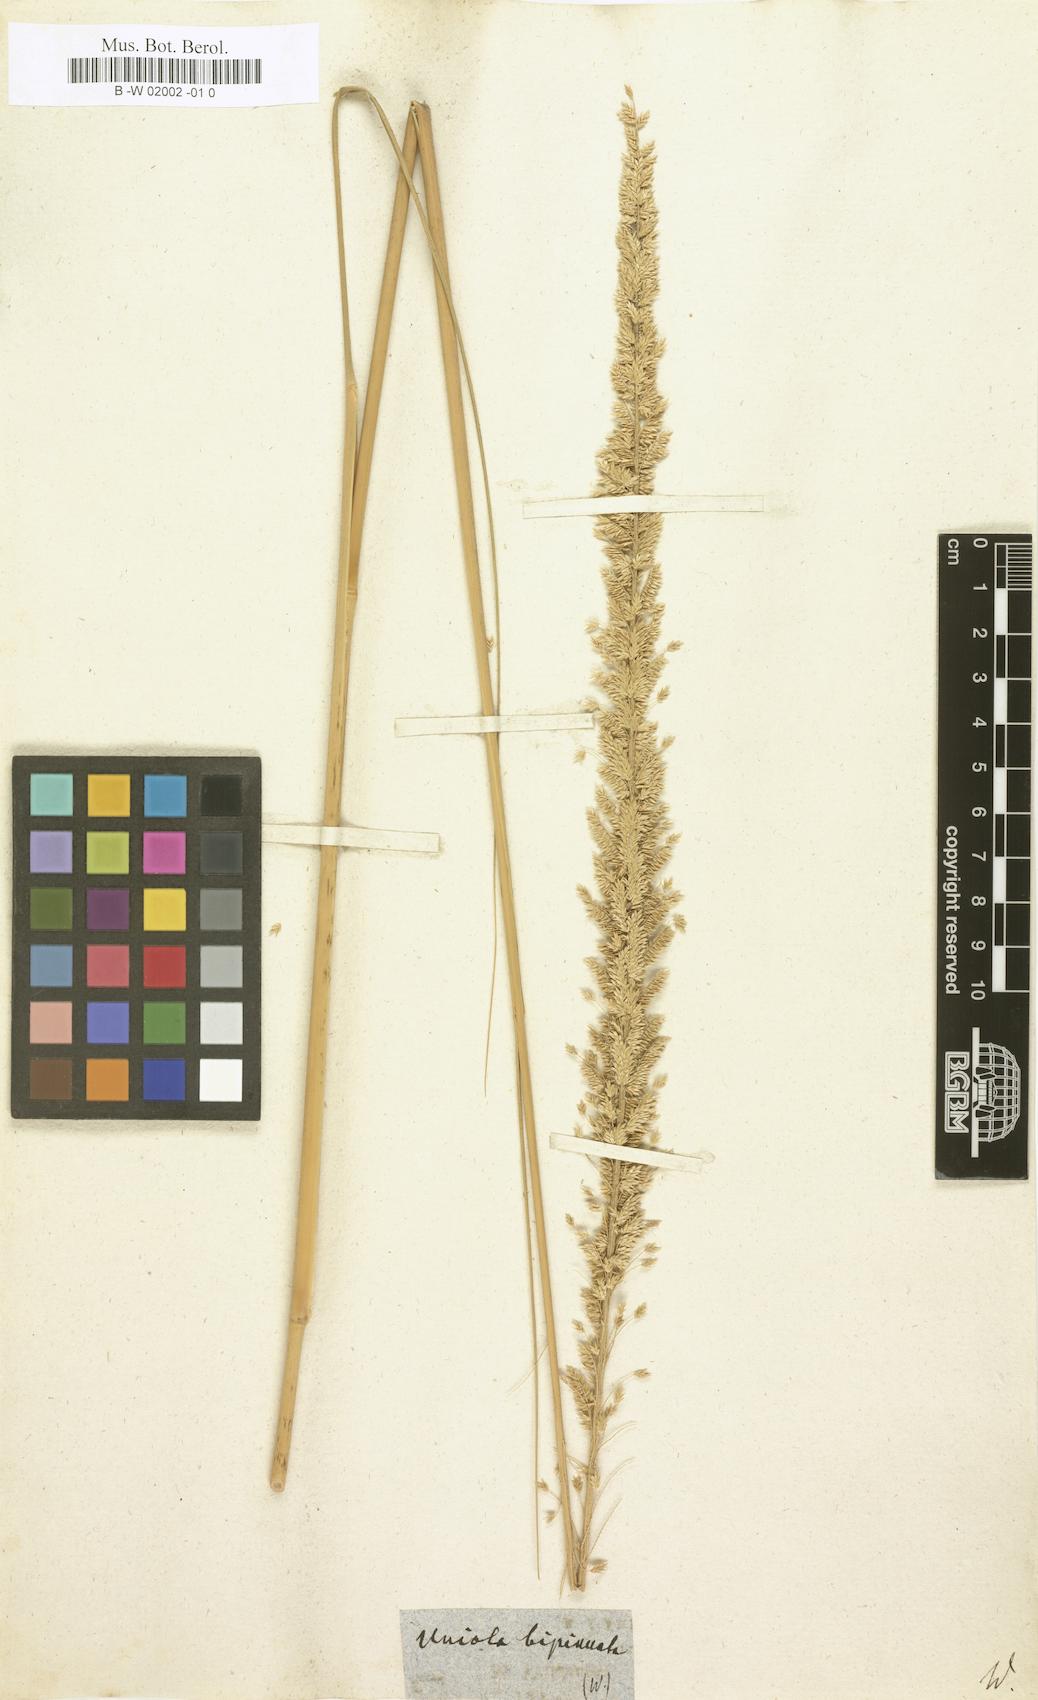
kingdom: Plantae
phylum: Tracheophyta
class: Liliopsida
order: Poales
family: Poaceae
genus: Desmostachya
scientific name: Desmostachya bipinnata
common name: Crowfoot grass
